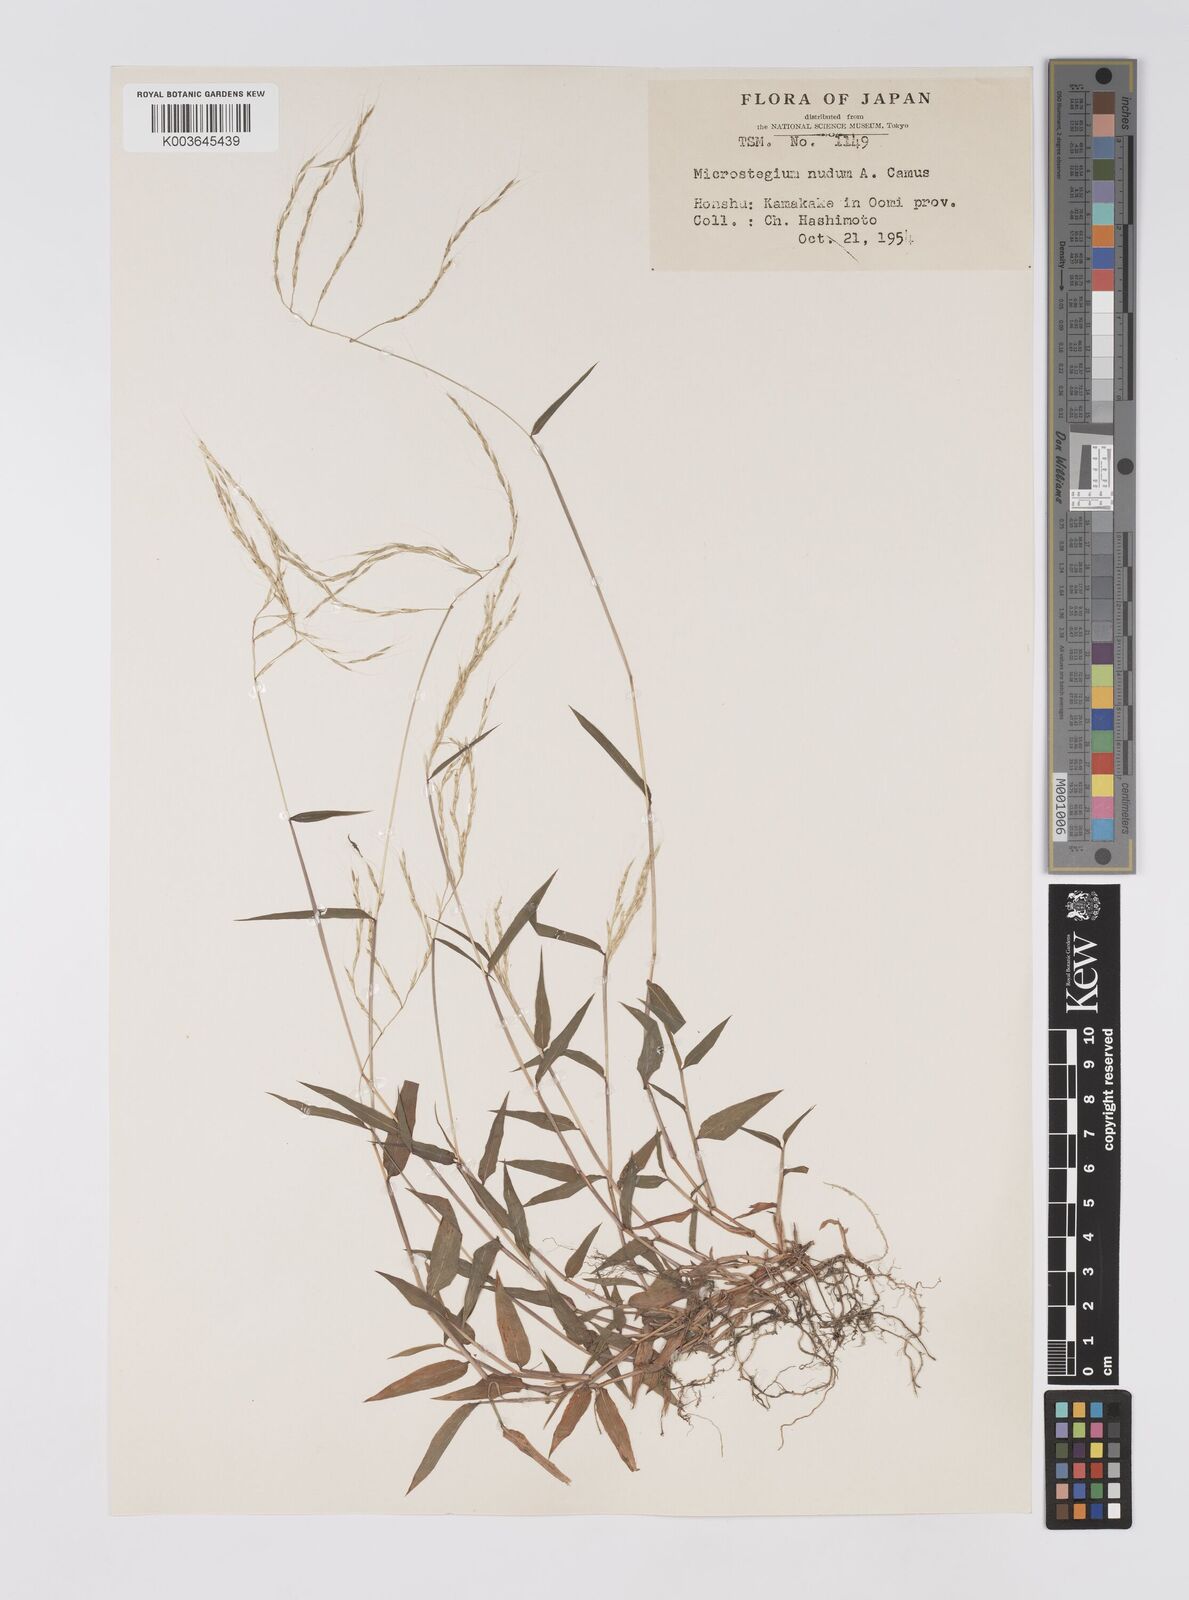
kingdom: Plantae
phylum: Tracheophyta
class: Liliopsida
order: Poales
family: Poaceae
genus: Microstegium
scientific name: Microstegium nudum
